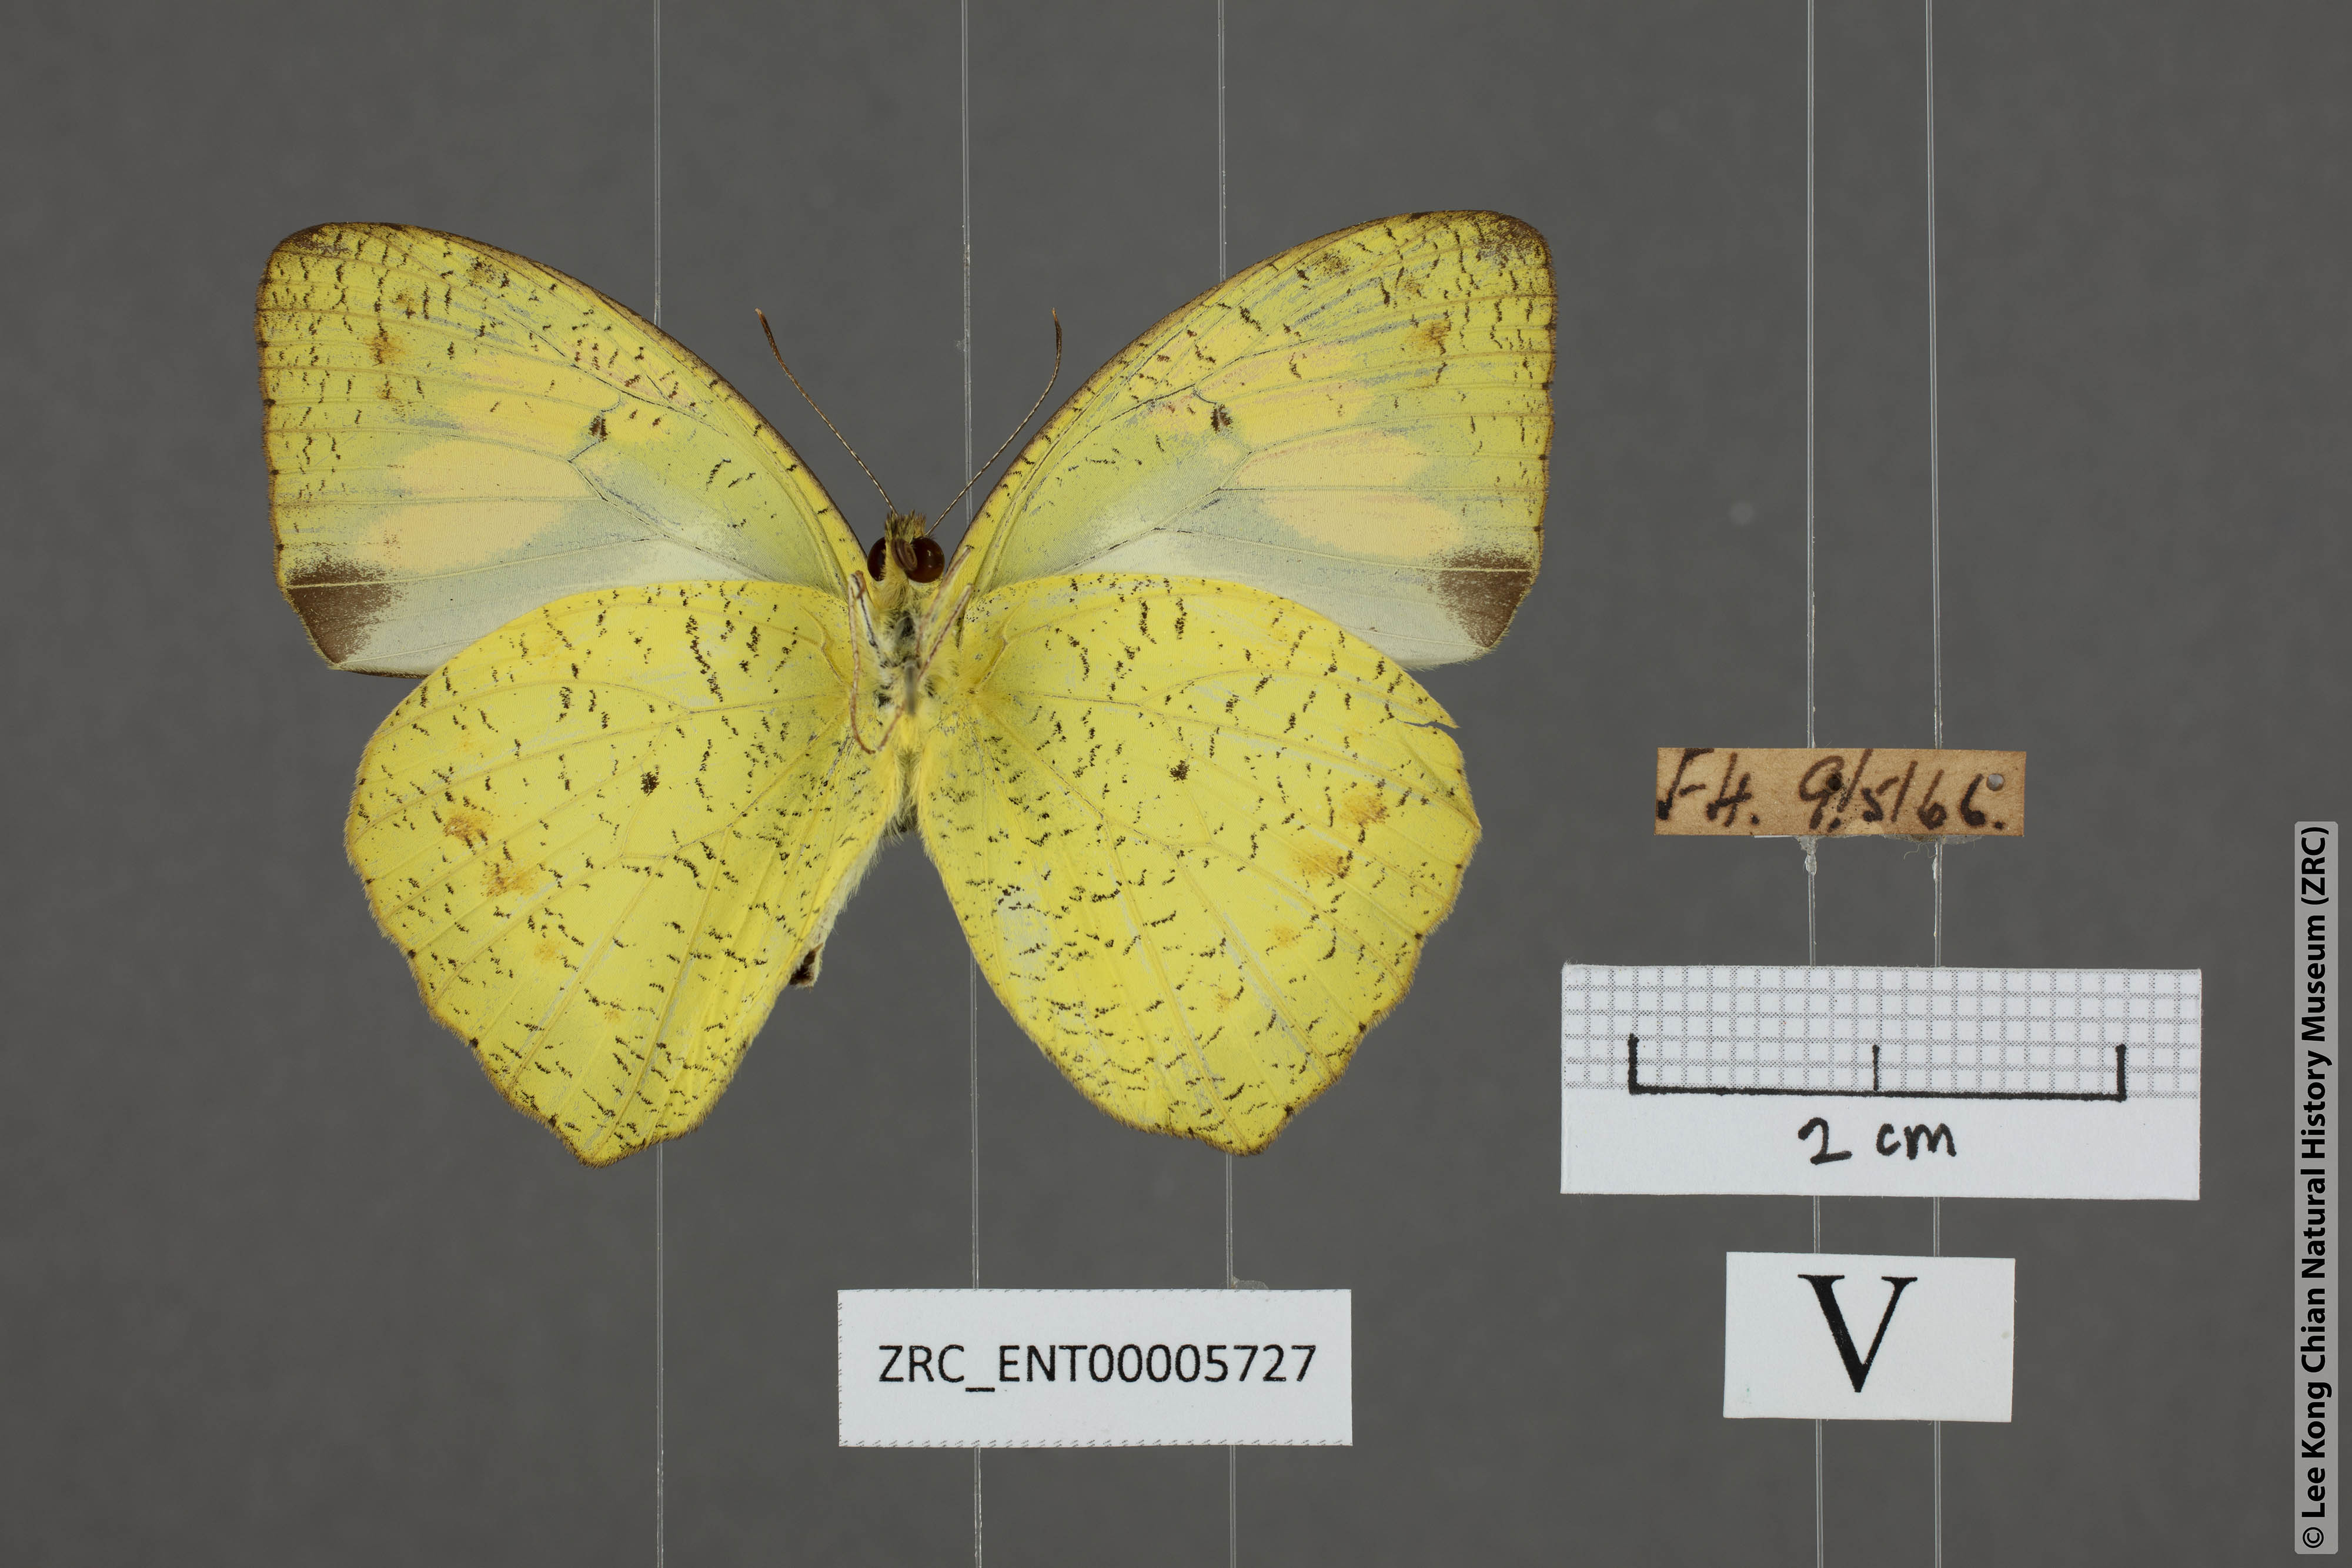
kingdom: Animalia
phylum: Arthropoda
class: Insecta
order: Lepidoptera
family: Pieridae
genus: Ixias
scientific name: Ixias pyrene
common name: Yellow orange tip
